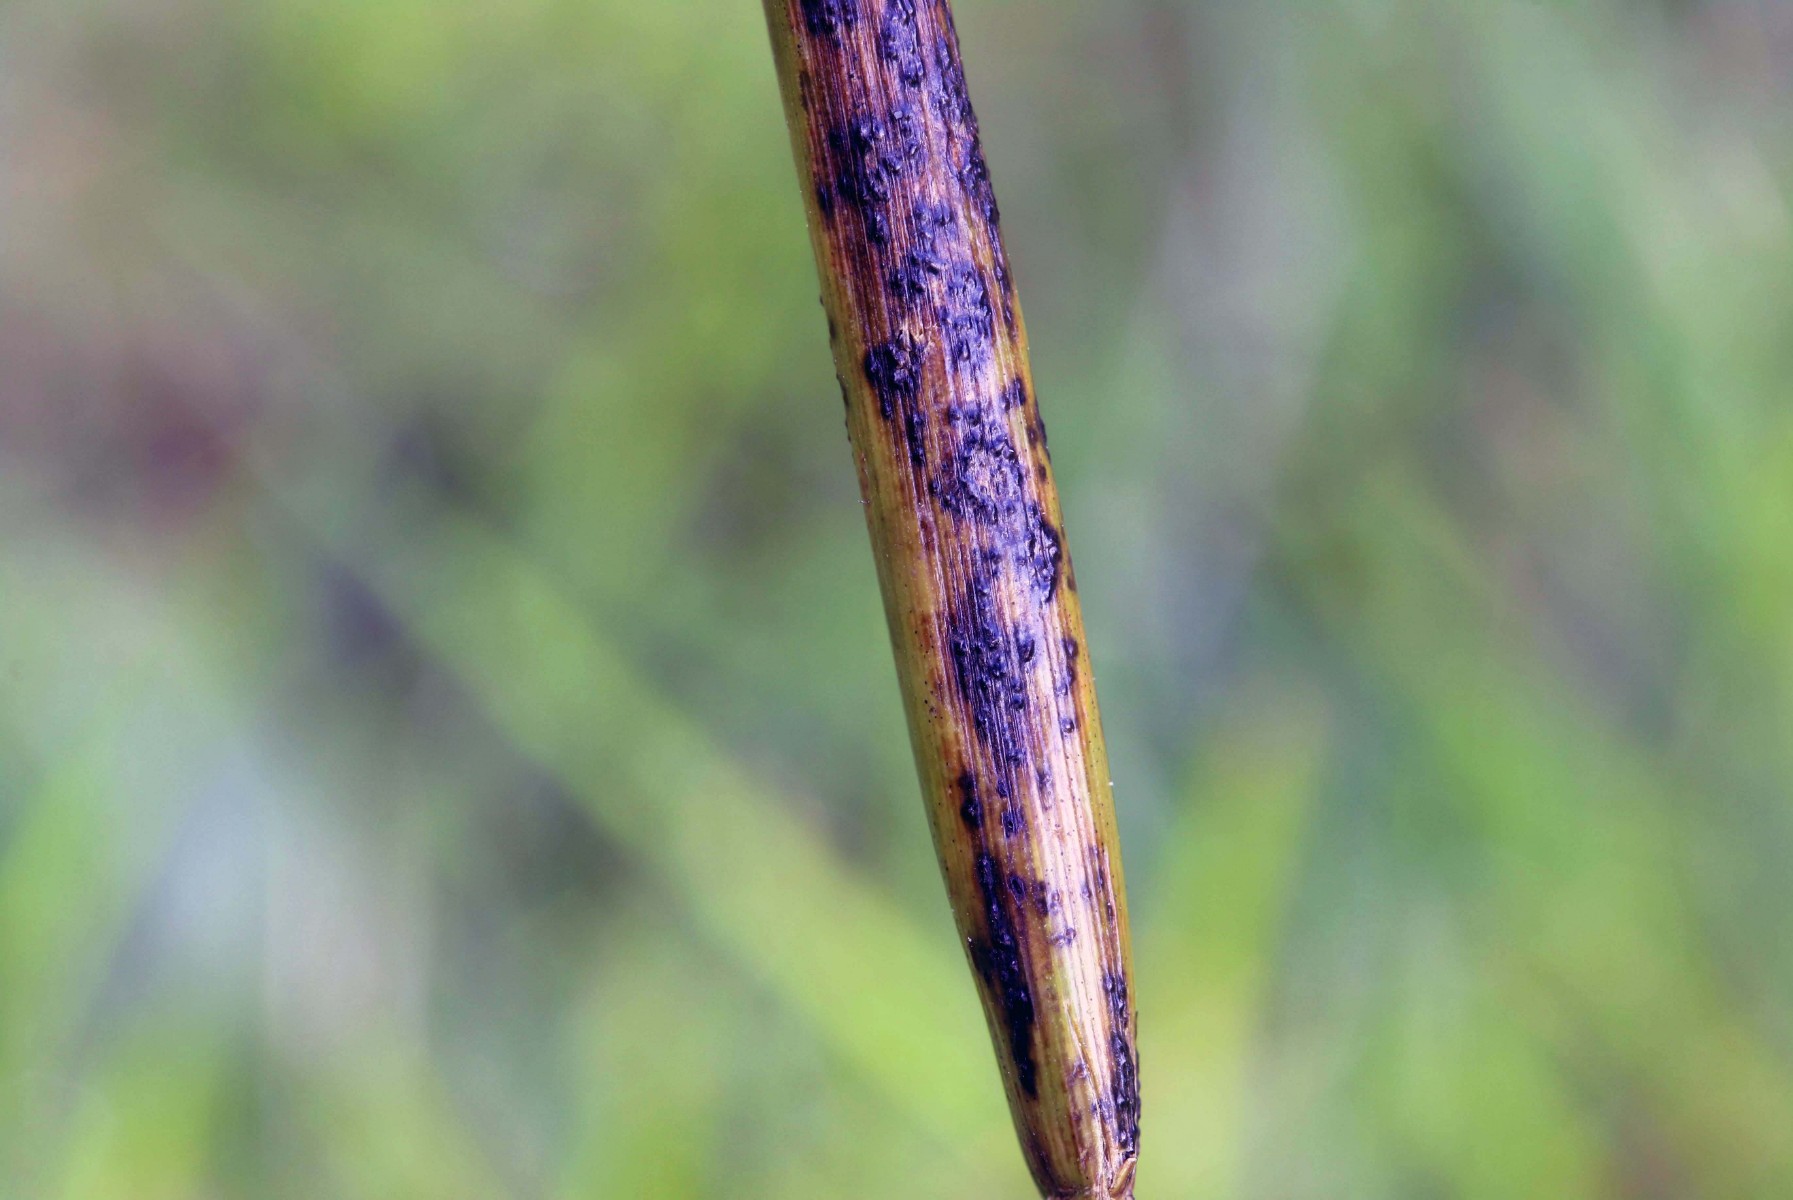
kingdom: Fungi
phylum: Ascomycota
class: Sordariomycetes
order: Phyllachorales
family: Phyllachoraceae
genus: Phyllachora
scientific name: Phyllachora junci
